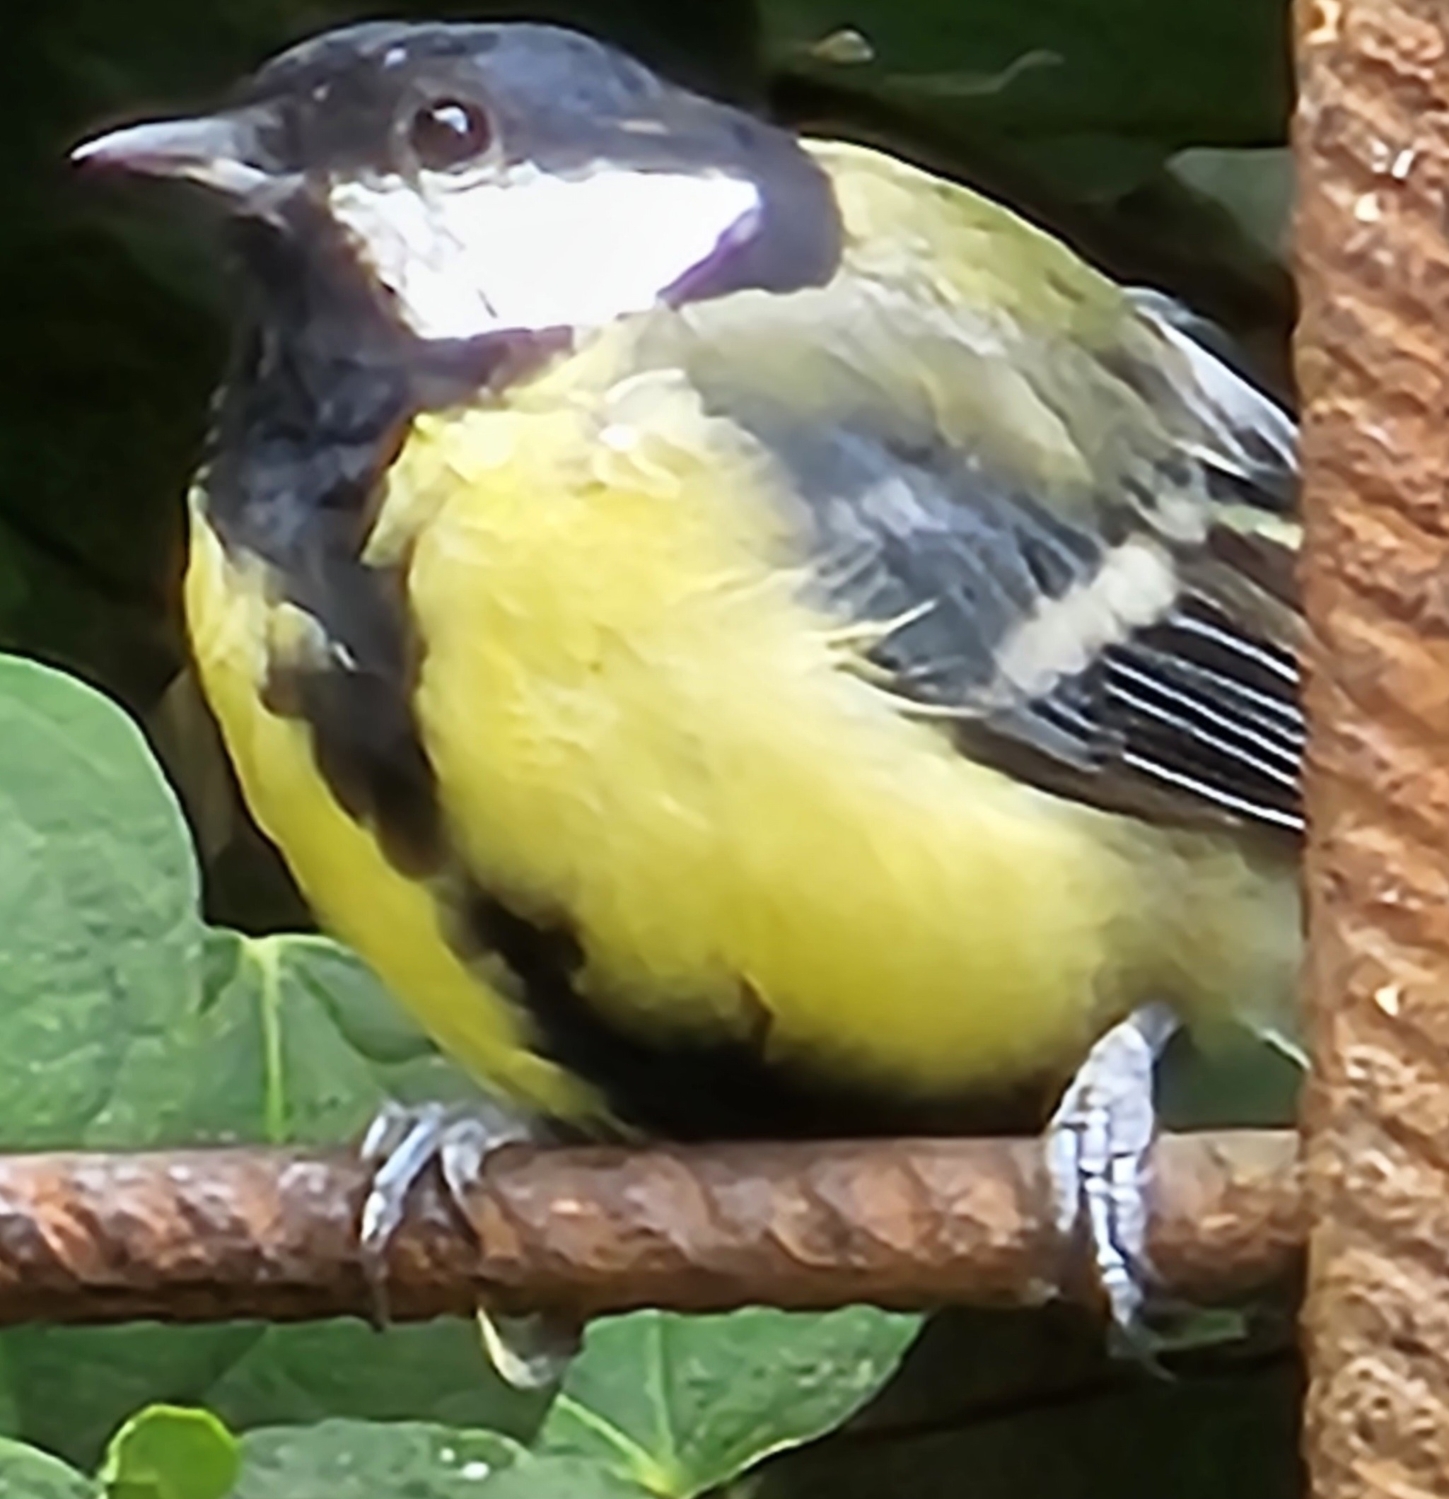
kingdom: Animalia
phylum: Chordata
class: Aves
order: Passeriformes
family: Paridae
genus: Parus
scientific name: Parus major
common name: Musvit
